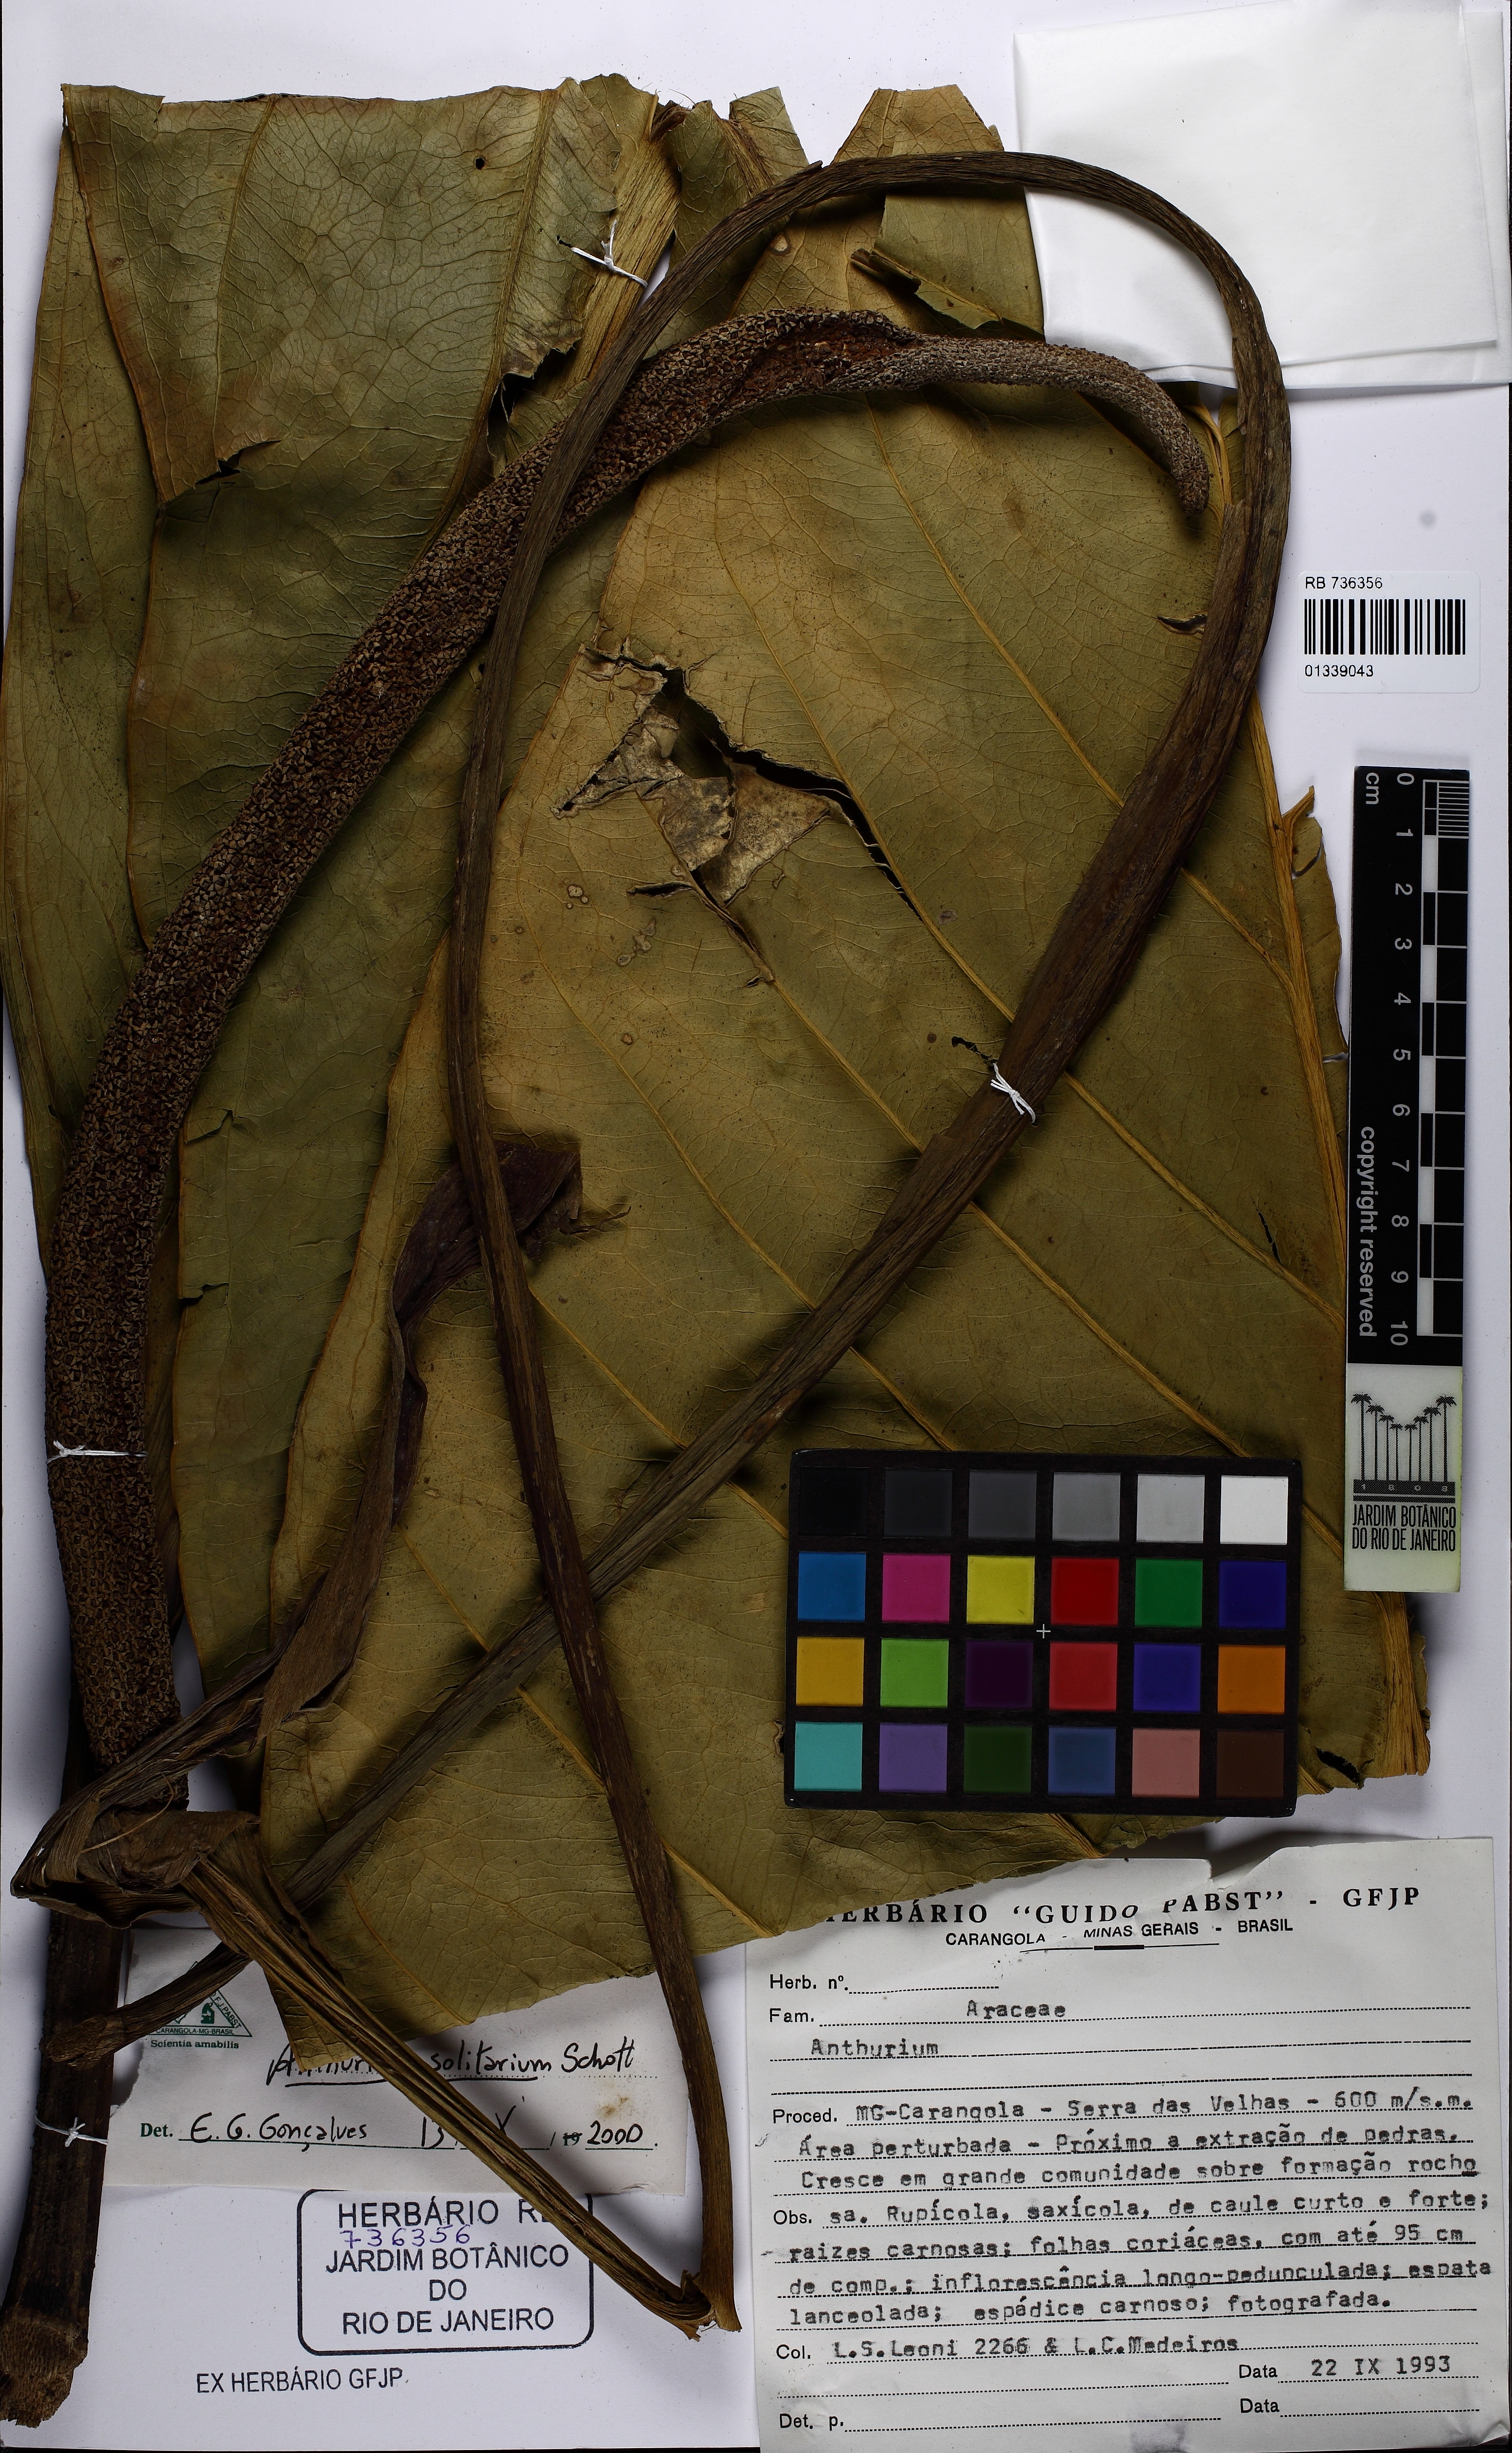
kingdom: Plantae
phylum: Tracheophyta
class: Liliopsida
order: Alismatales
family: Araceae
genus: Anthurium
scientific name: Anthurium solitarium
